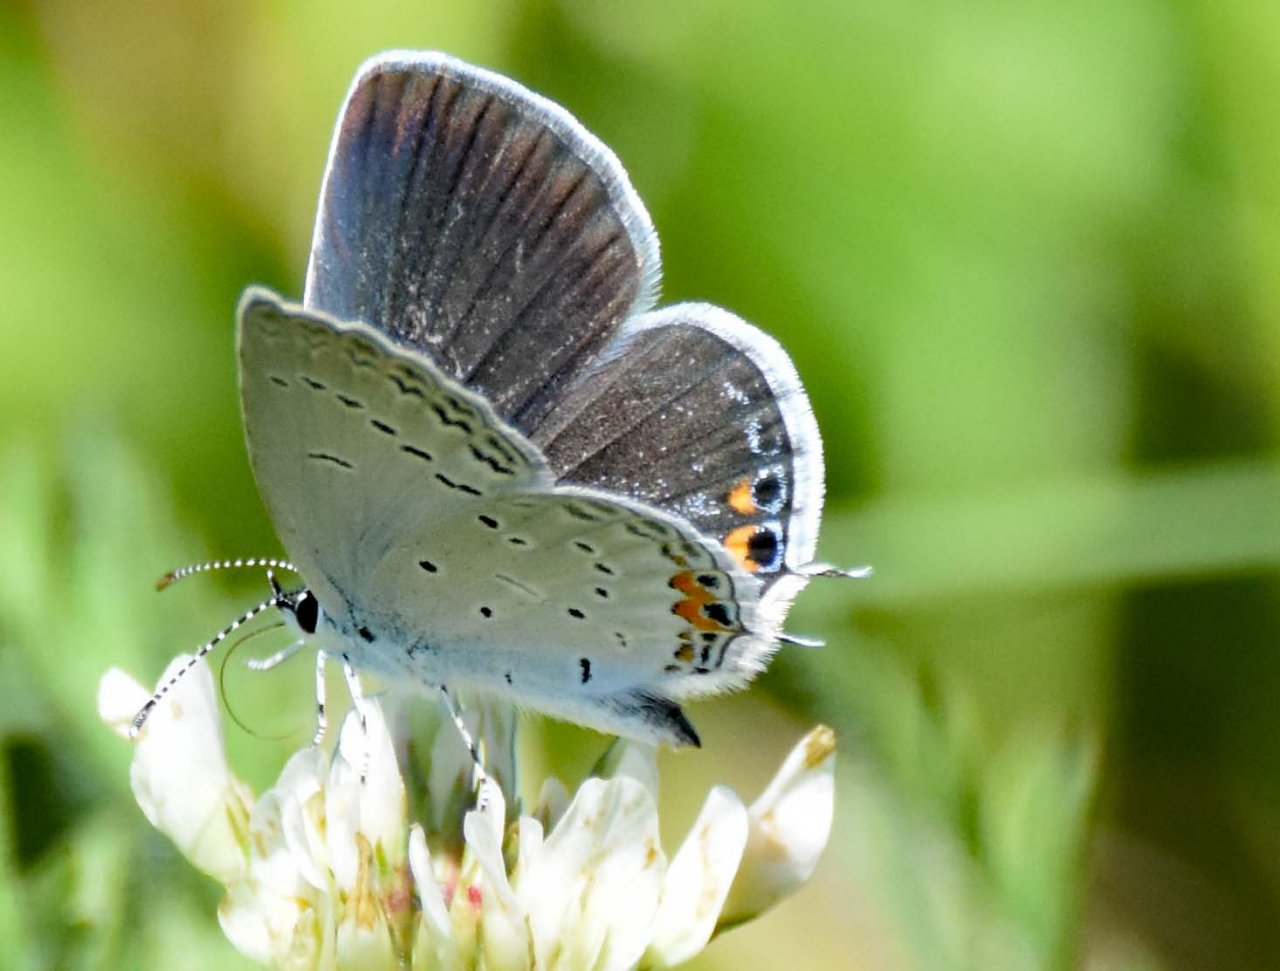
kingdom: Animalia
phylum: Arthropoda
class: Insecta
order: Lepidoptera
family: Lycaenidae
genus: Elkalyce
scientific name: Elkalyce comyntas
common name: Eastern Tailed-Blue
